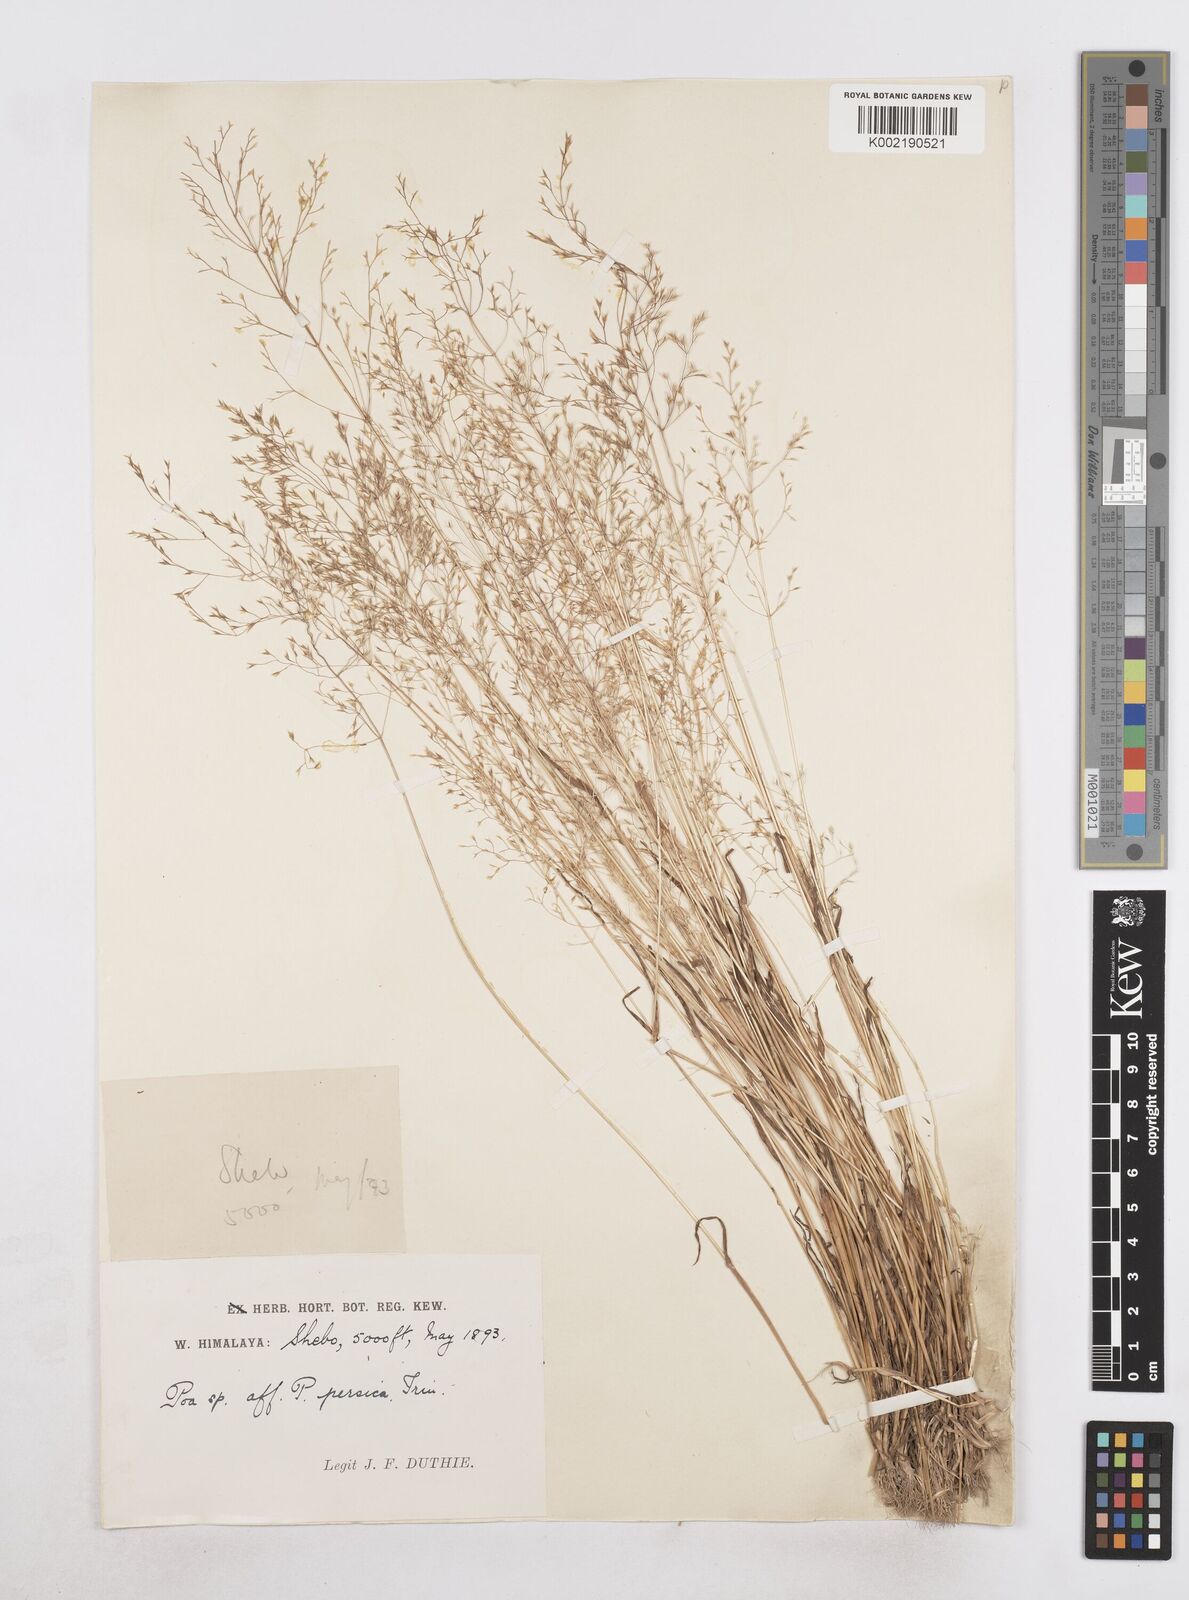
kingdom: Plantae
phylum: Tracheophyta
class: Liliopsida
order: Poales
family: Poaceae
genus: Poa
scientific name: Poa persica
